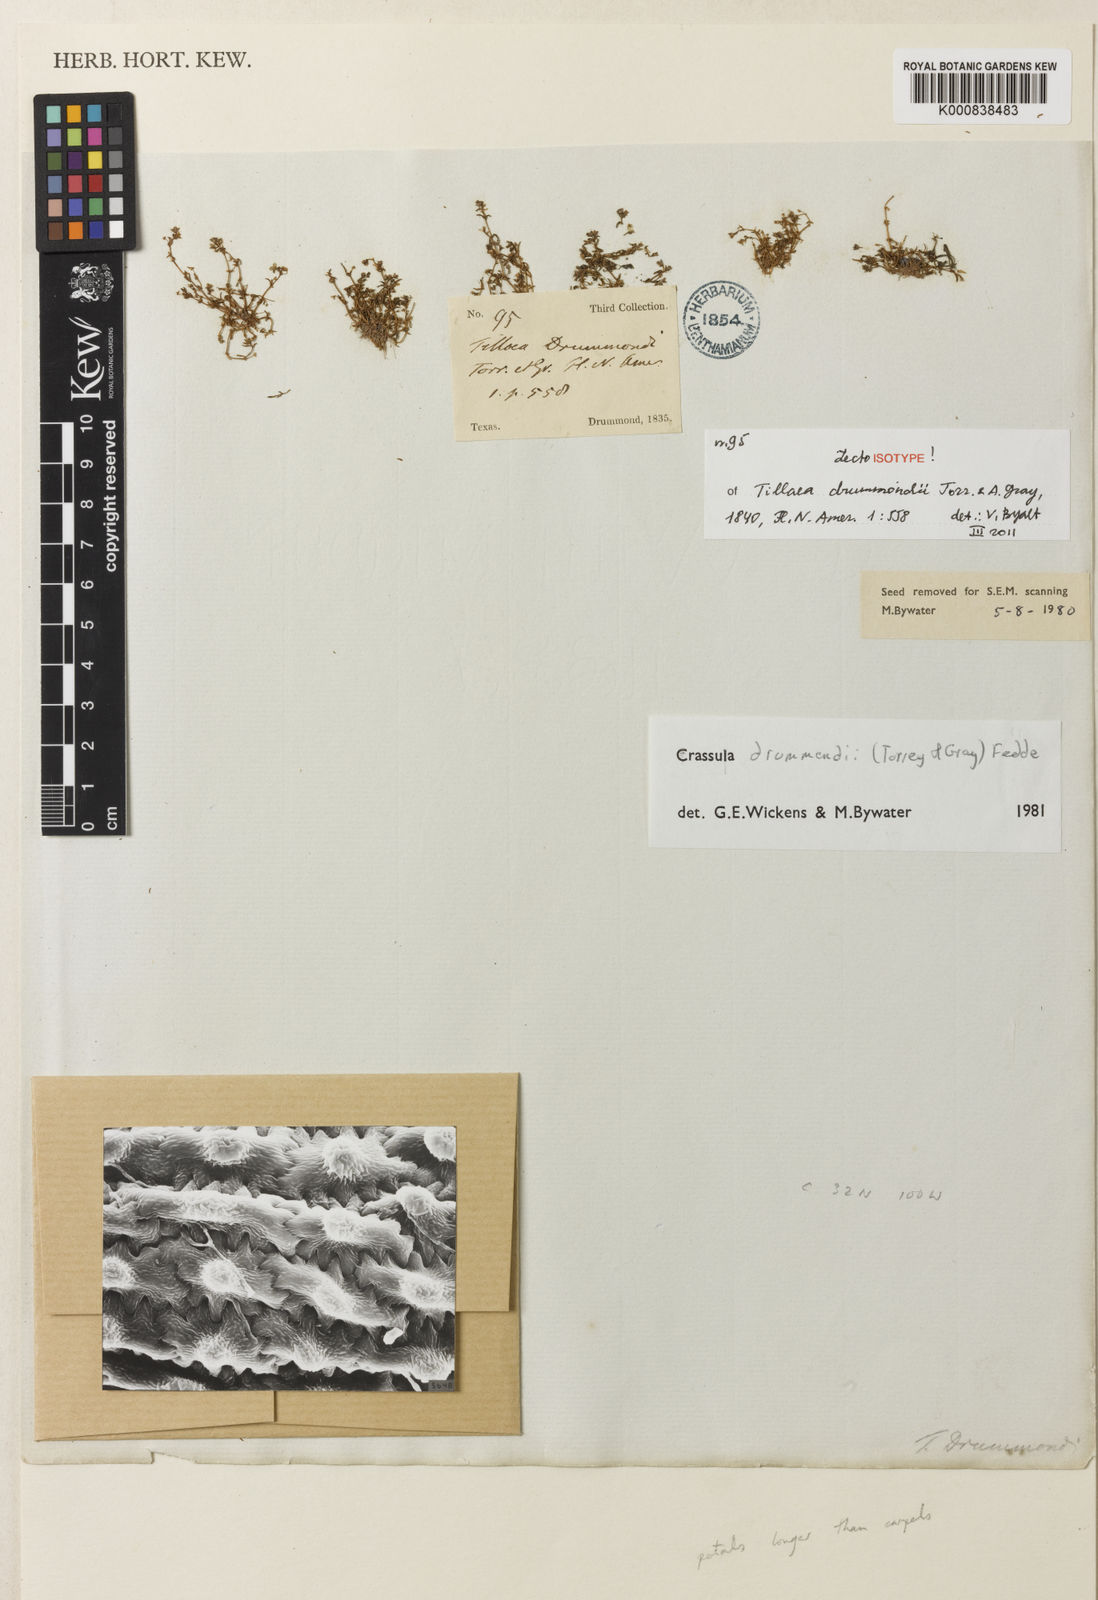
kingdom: Plantae
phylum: Tracheophyta
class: Magnoliopsida
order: Saxifragales
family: Crassulaceae
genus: Crassula
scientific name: Crassula drummondii
